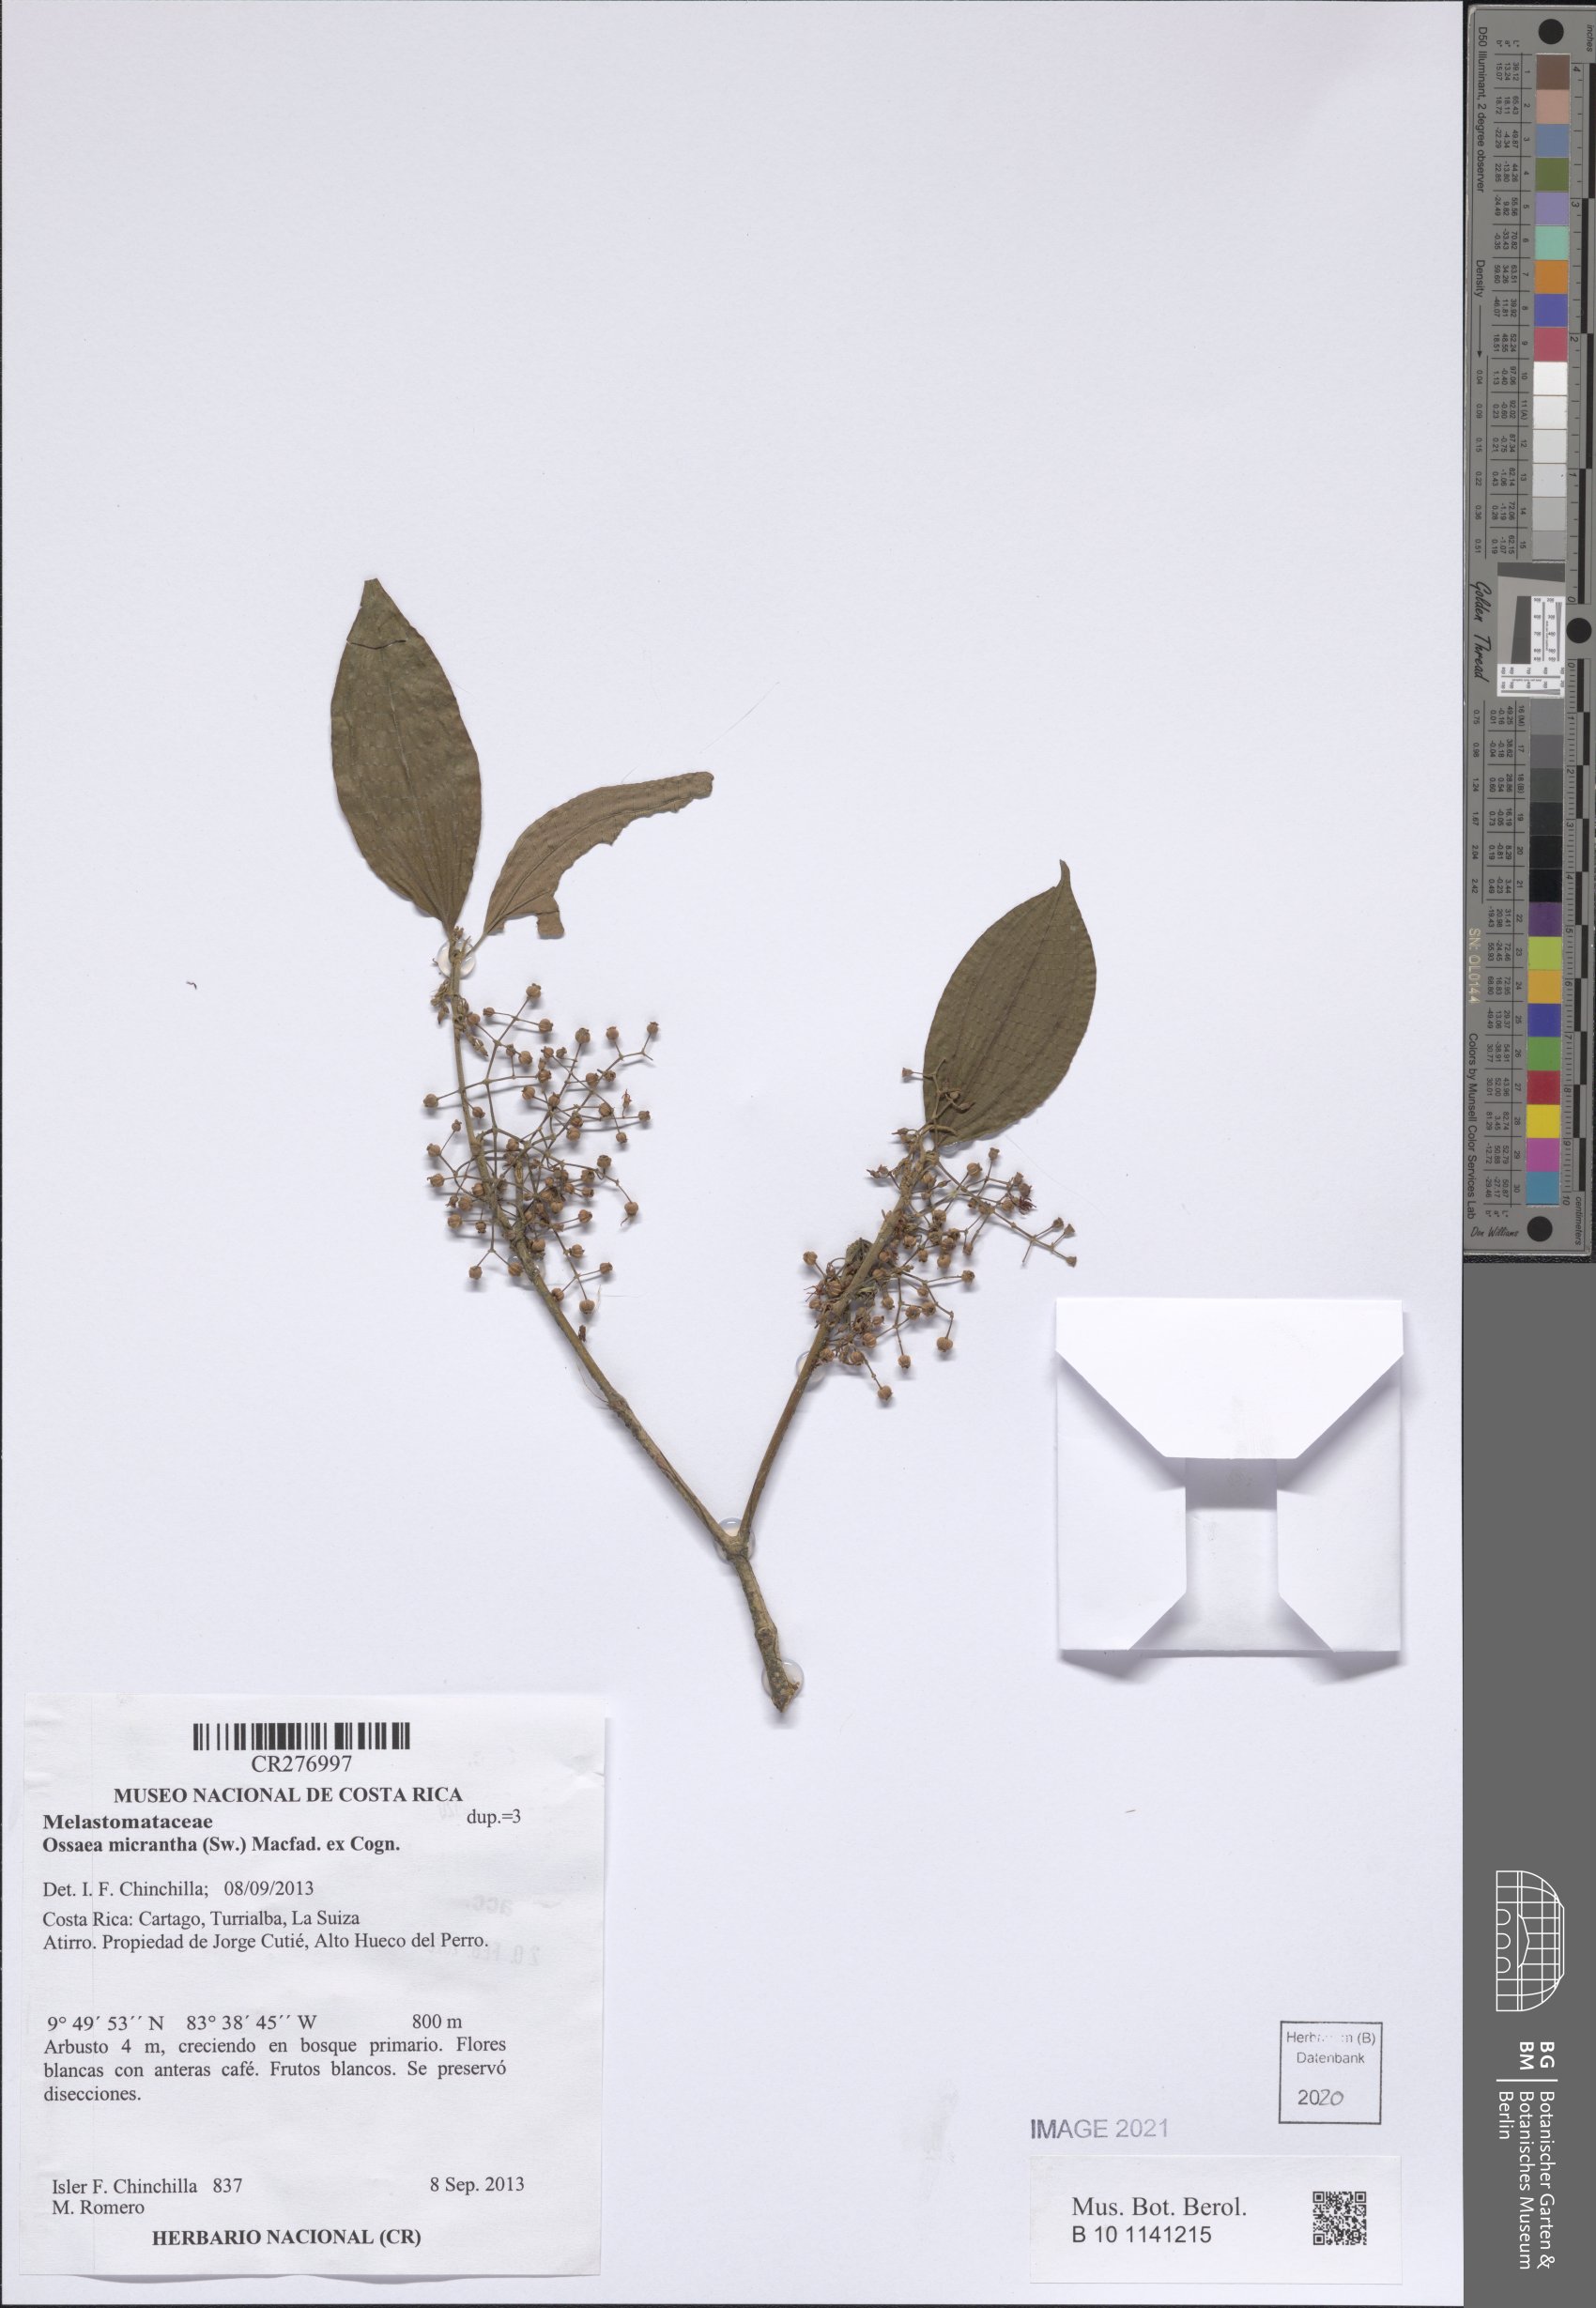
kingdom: Plantae
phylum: Tracheophyta
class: Magnoliopsida
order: Myrtales
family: Melastomataceae
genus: Miconia
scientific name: Miconia rubescens
